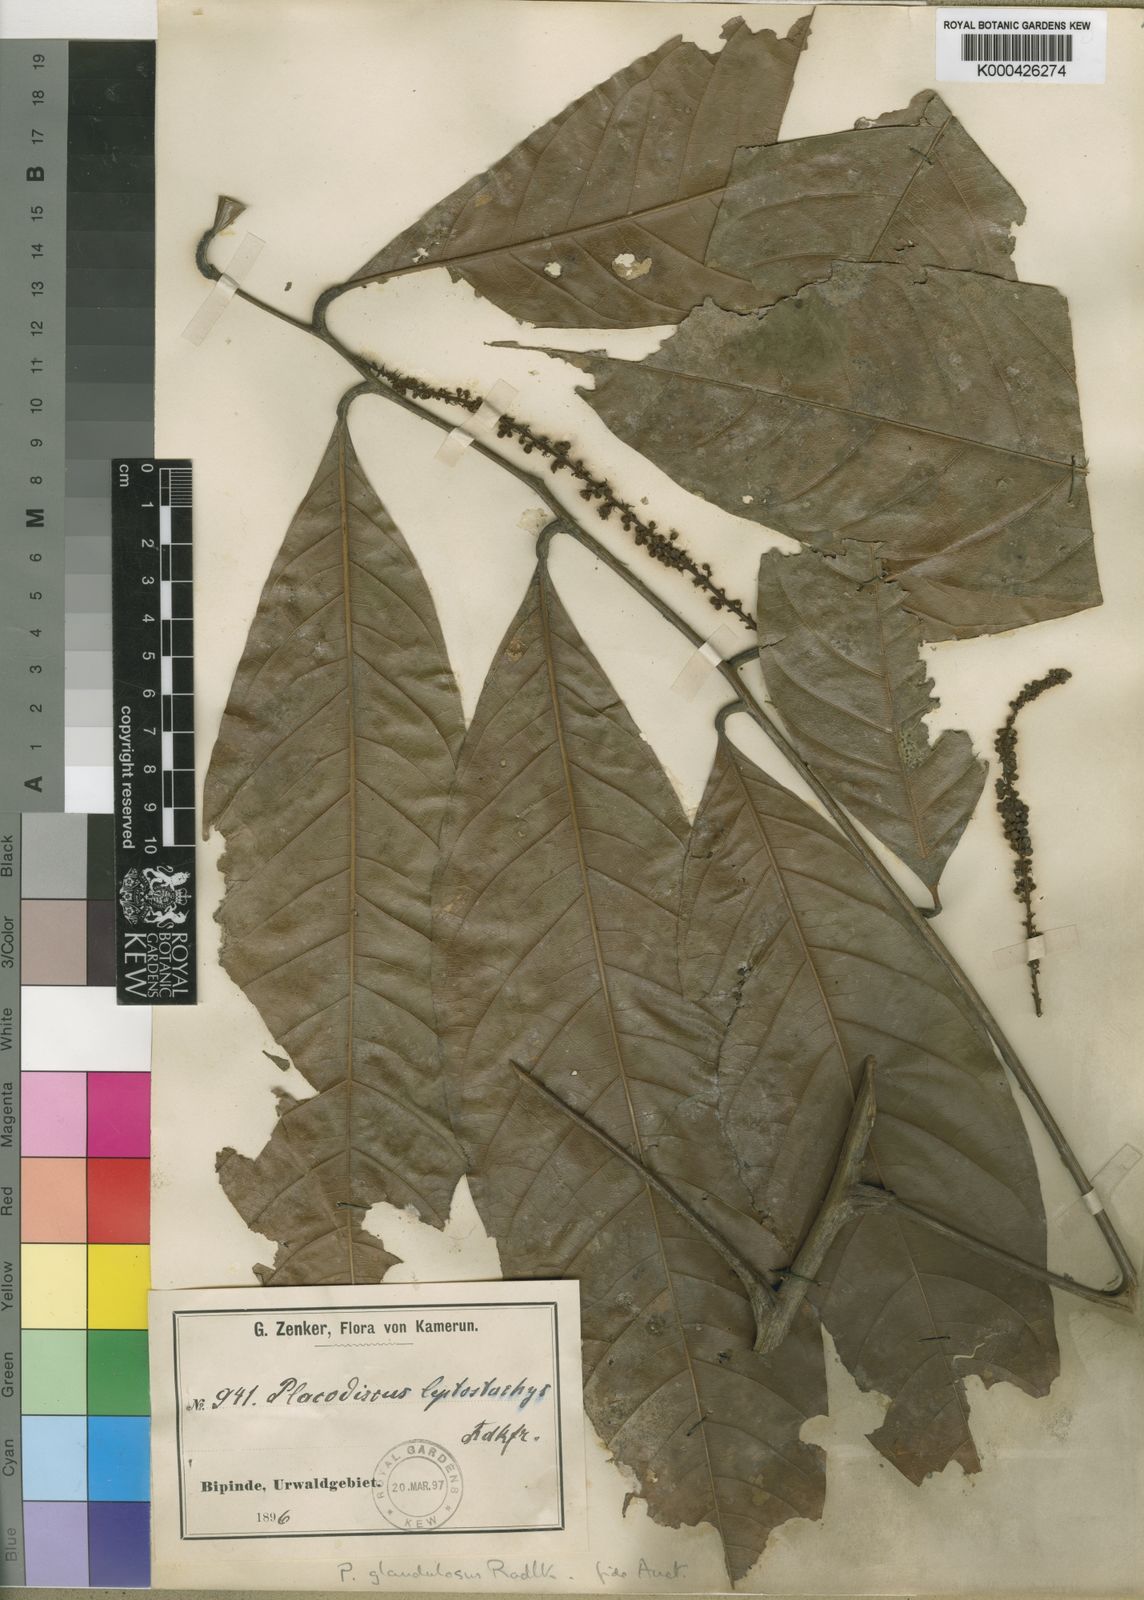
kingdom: Plantae
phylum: Tracheophyta
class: Magnoliopsida
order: Sapindales
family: Sapindaceae
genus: Placodiscus
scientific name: Placodiscus glandulosus
